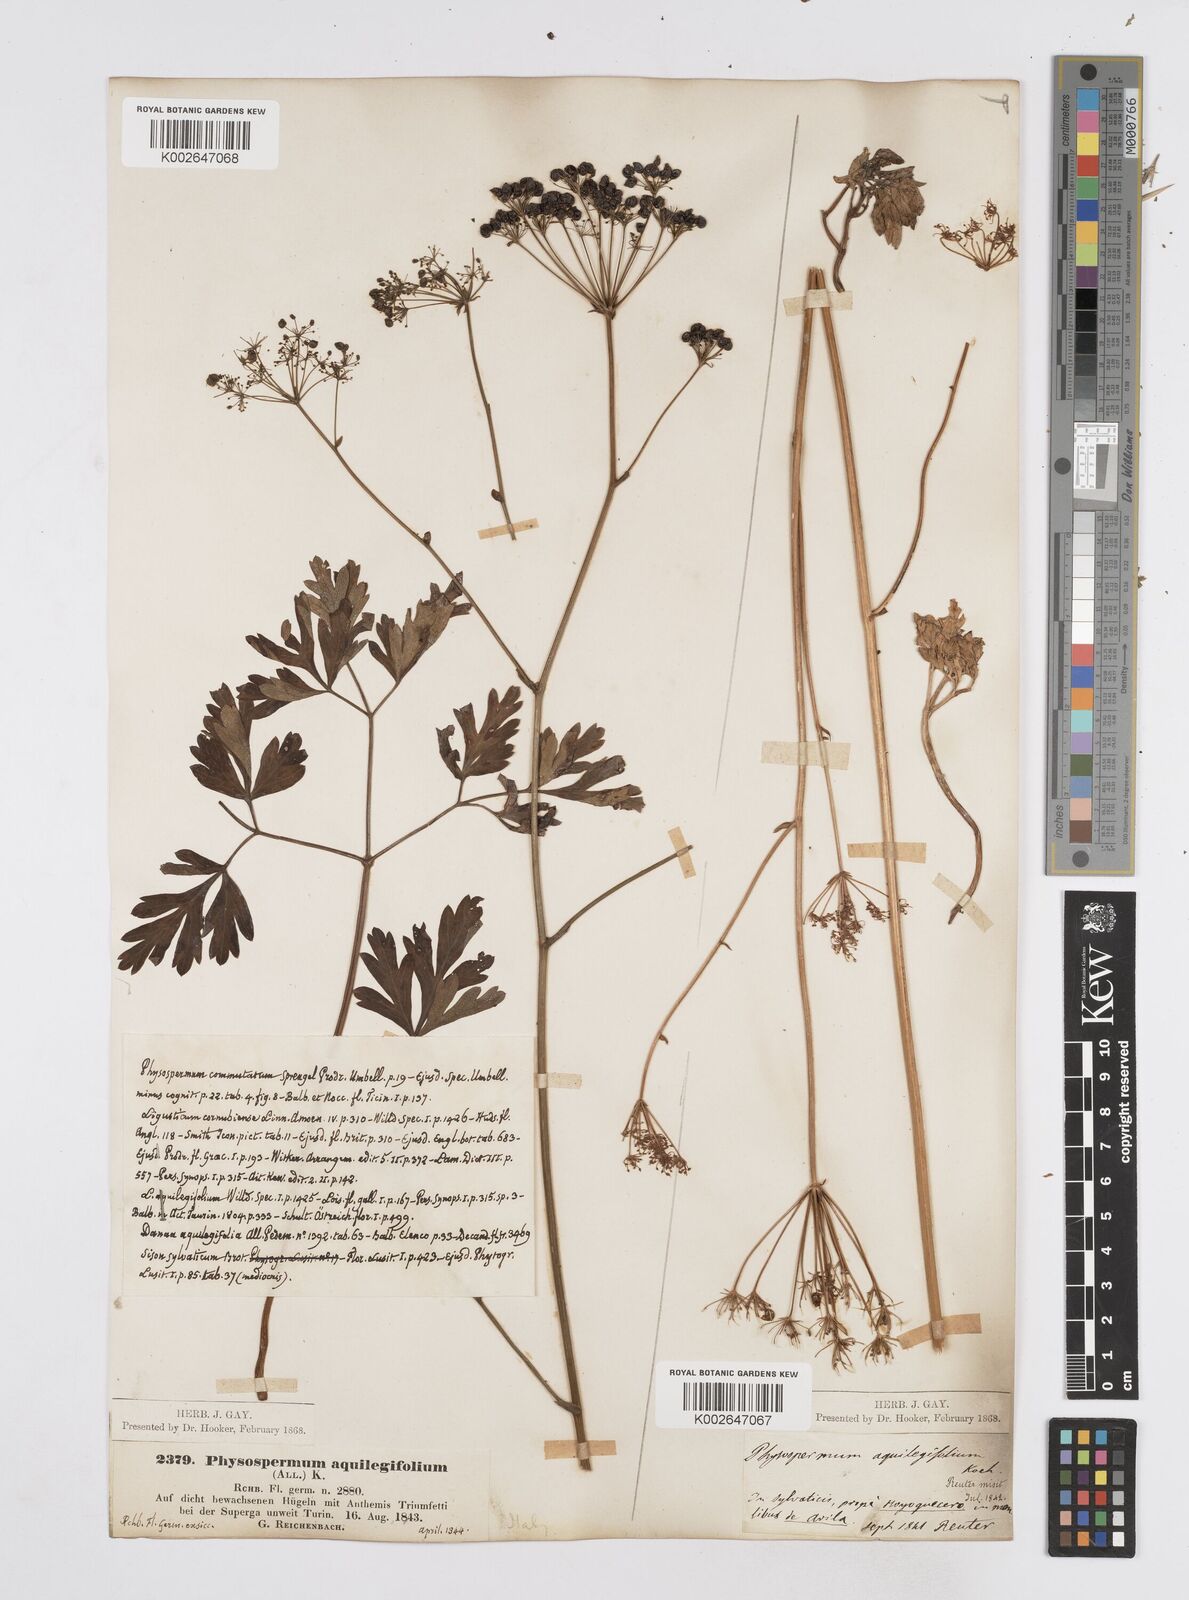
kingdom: Plantae
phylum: Tracheophyta
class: Magnoliopsida
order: Apiales
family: Apiaceae
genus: Physospermum
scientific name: Physospermum cornubiense
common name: Bladderseed
